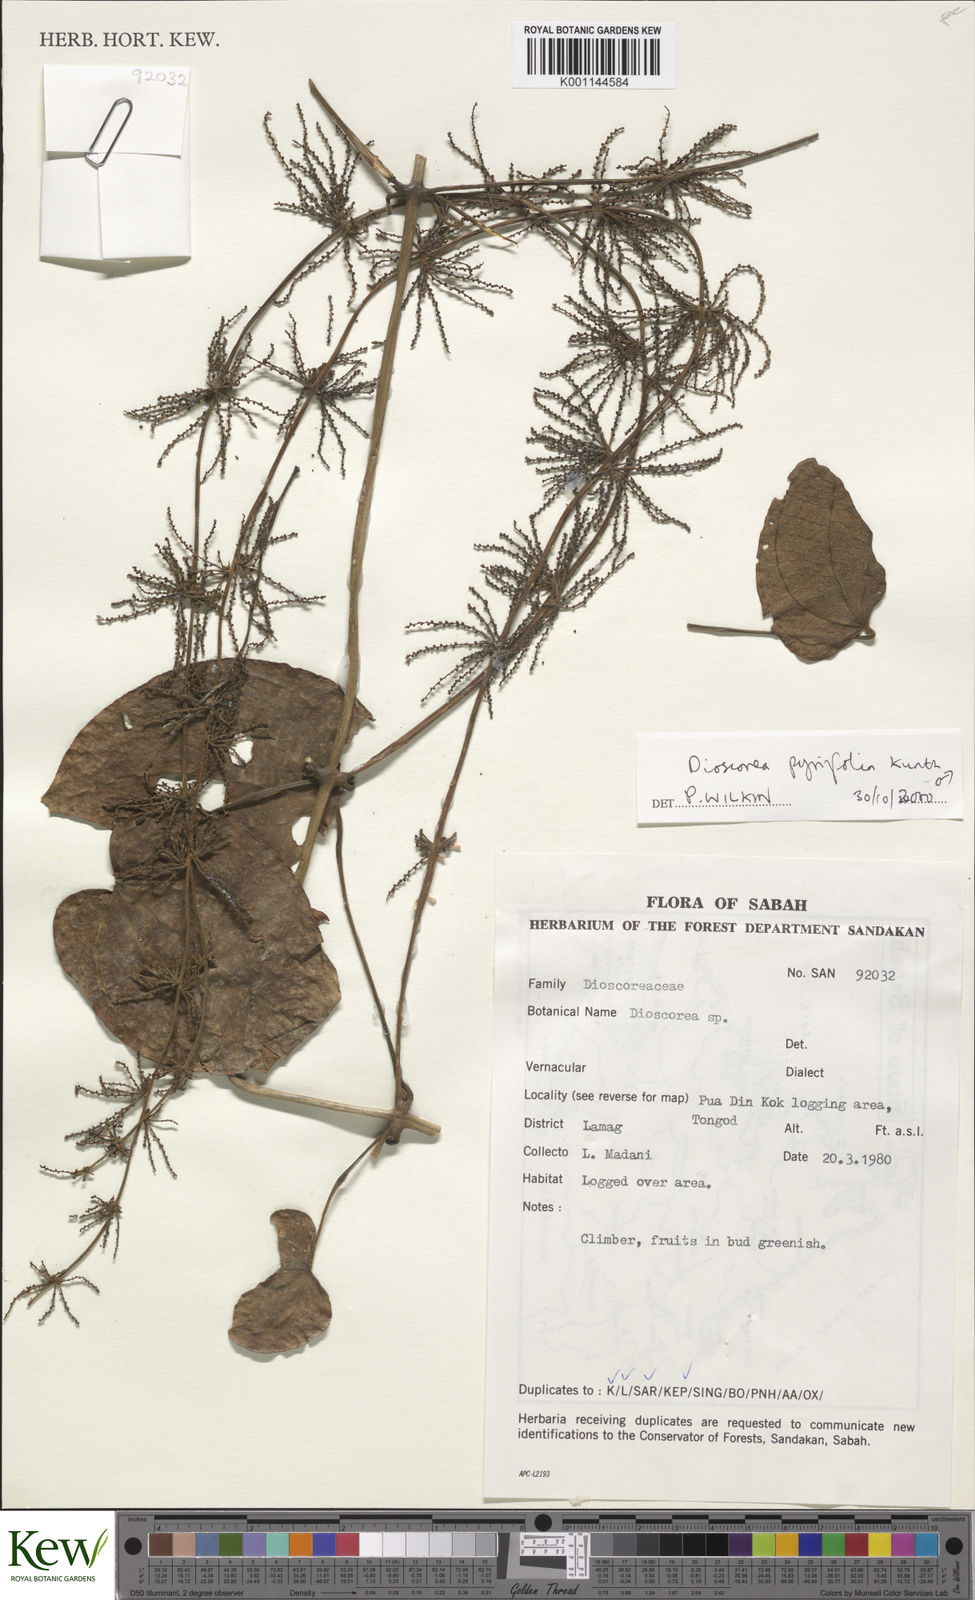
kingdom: Plantae
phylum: Tracheophyta
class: Liliopsida
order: Dioscoreales
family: Dioscoreaceae
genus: Dioscorea
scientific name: Dioscorea pyrifolia
